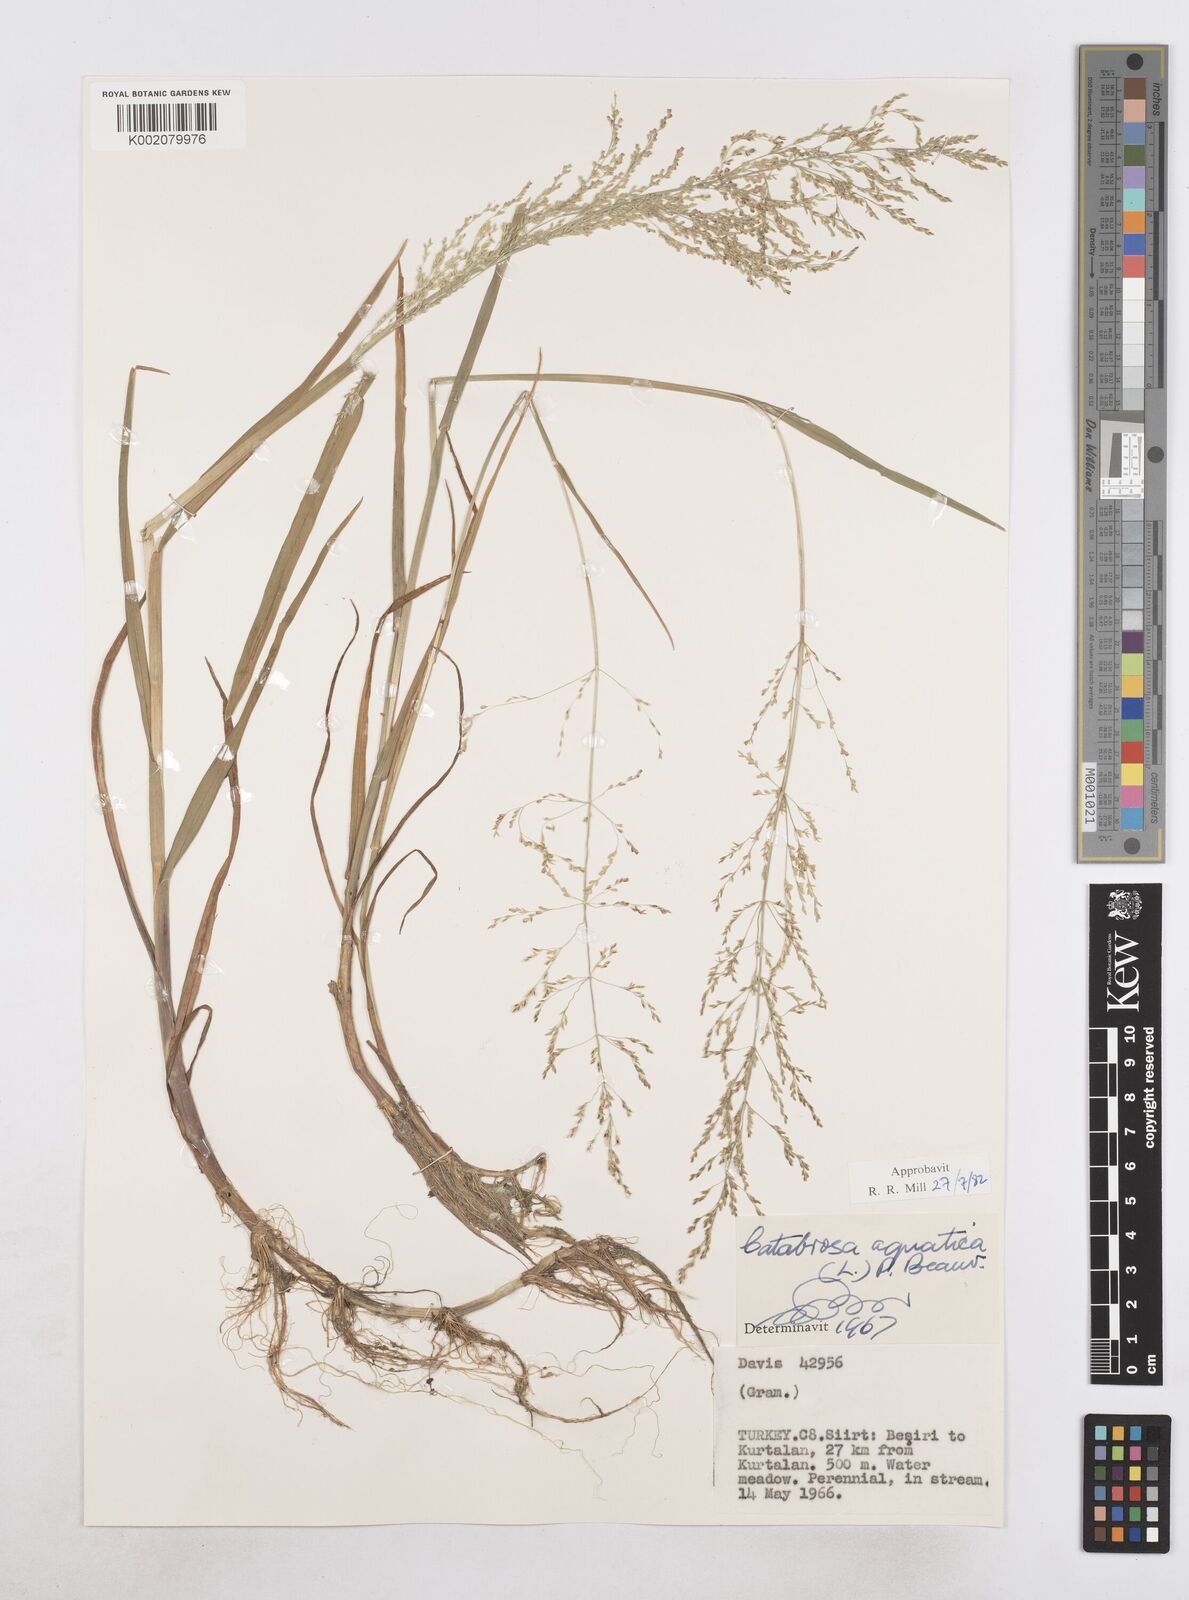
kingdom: Plantae
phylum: Tracheophyta
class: Liliopsida
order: Poales
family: Poaceae
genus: Catabrosa
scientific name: Catabrosa aquatica
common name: Whorl-grass
